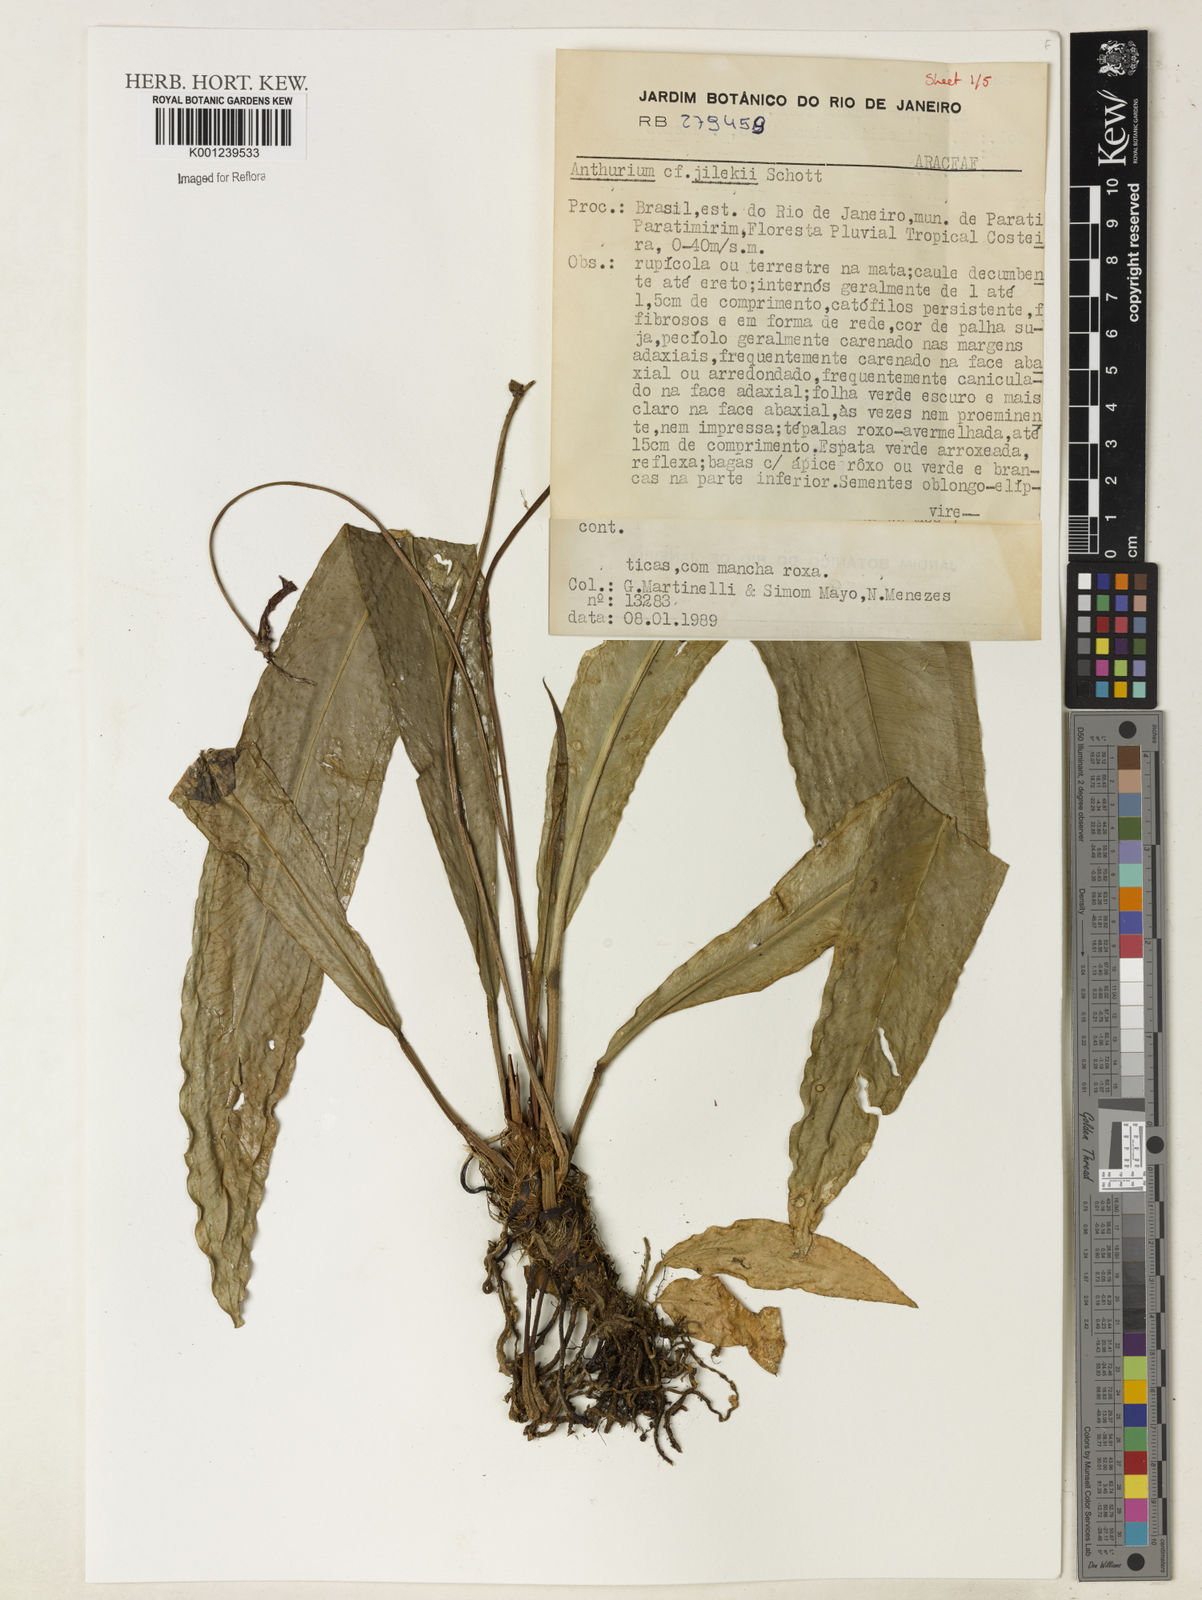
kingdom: Plantae
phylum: Tracheophyta
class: Liliopsida
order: Alismatales
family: Araceae
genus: Anthurium
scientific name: Anthurium jilekii
